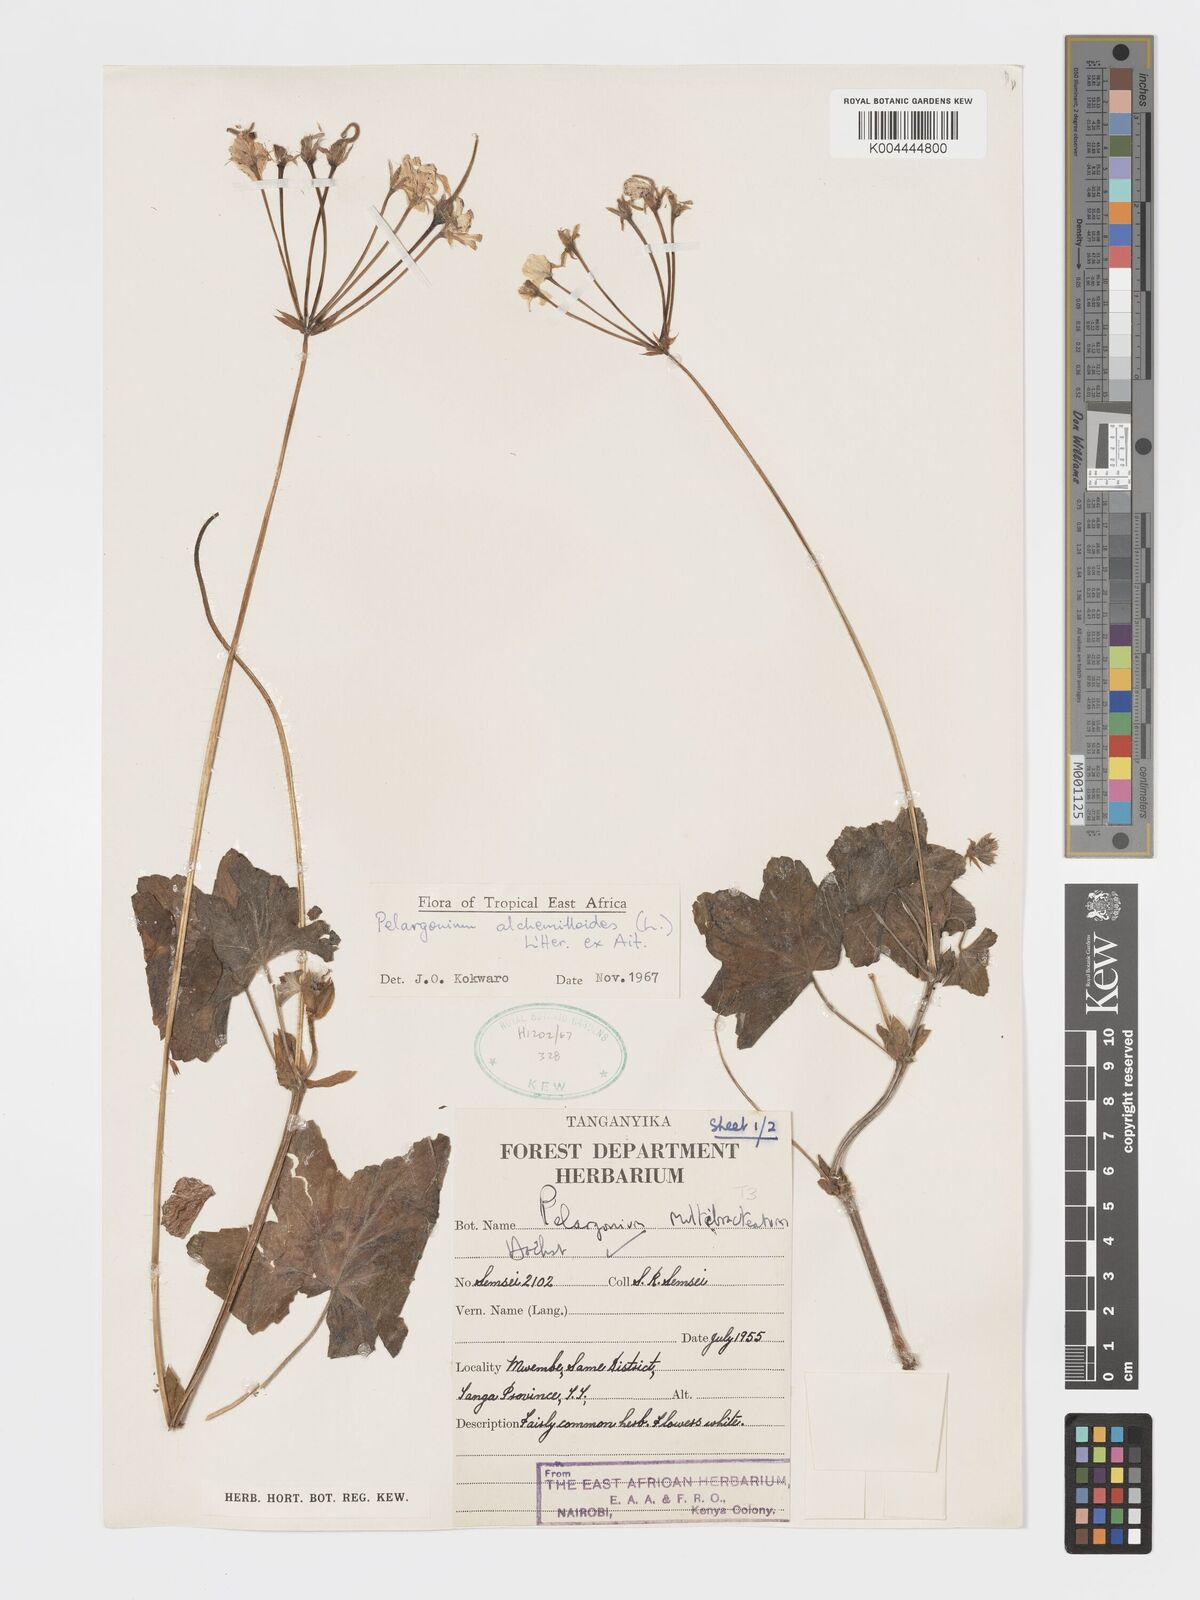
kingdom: Plantae
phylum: Tracheophyta
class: Magnoliopsida
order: Geraniales
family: Geraniaceae
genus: Pelargonium
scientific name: Pelargonium alchemilloides
